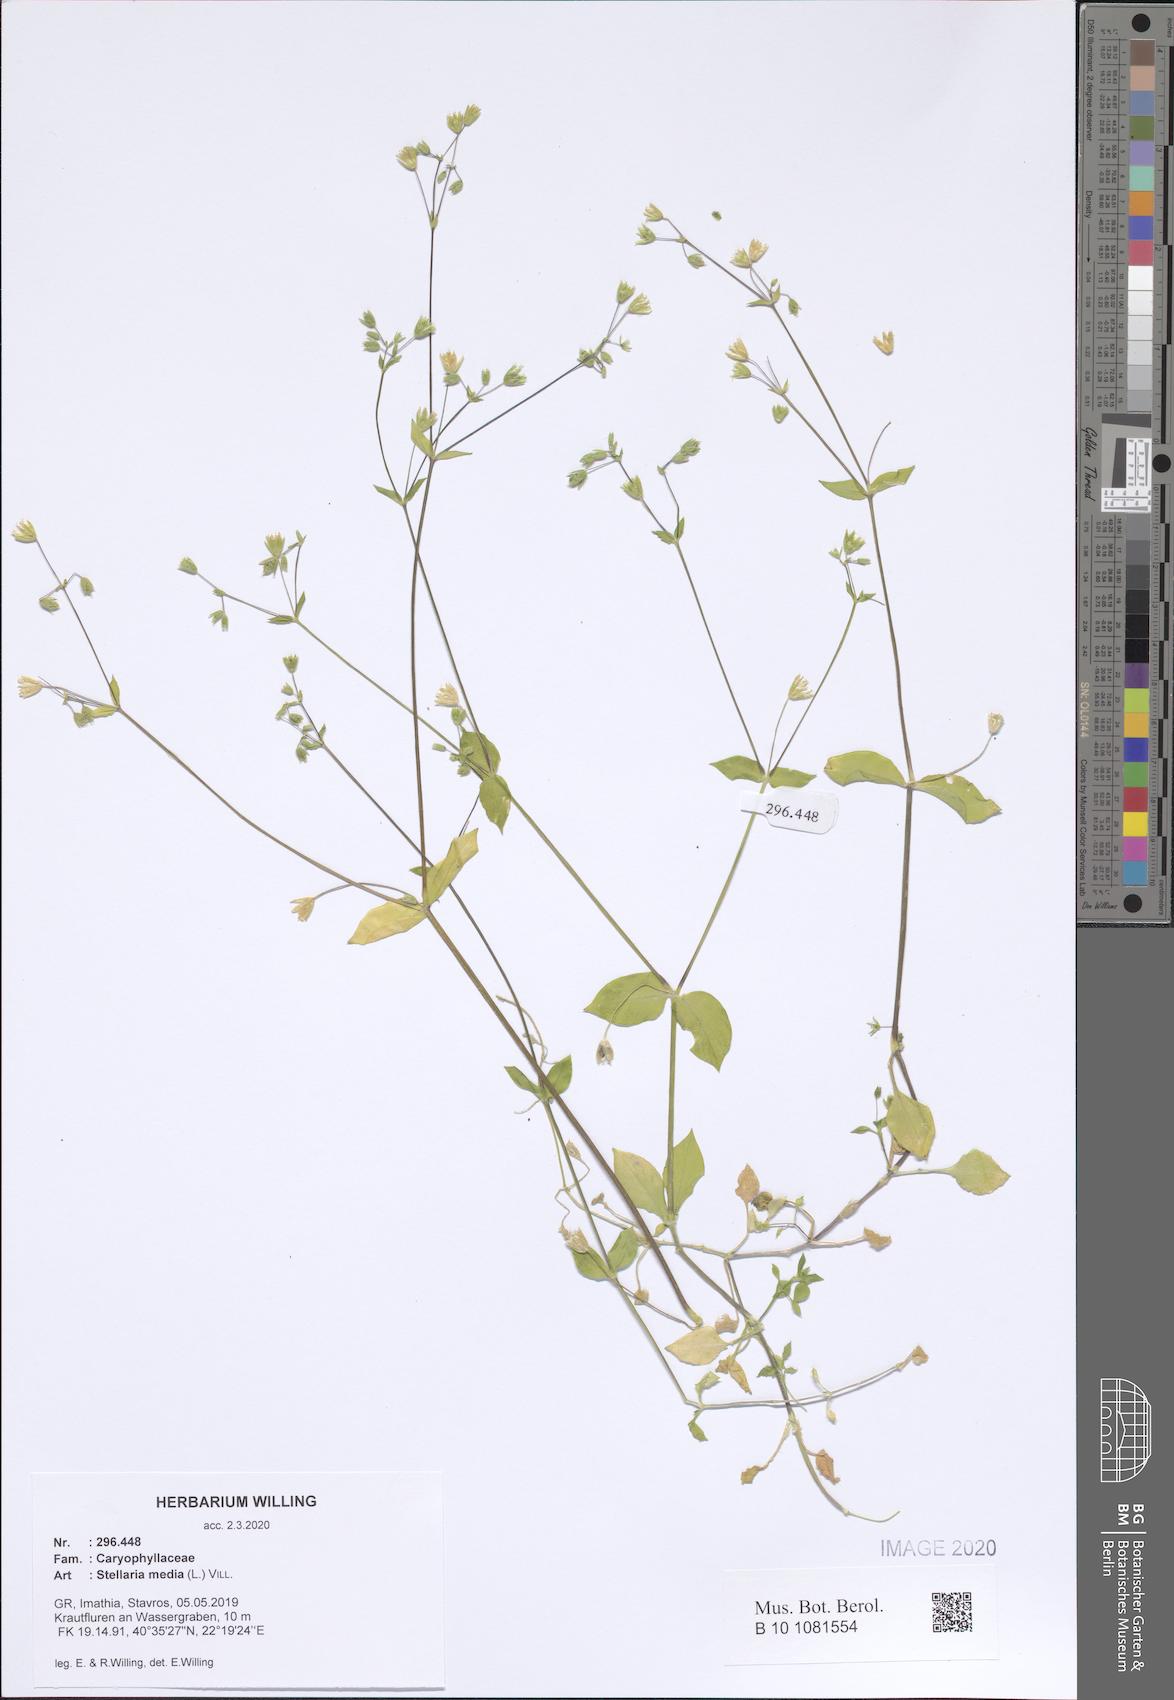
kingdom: Plantae
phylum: Tracheophyta
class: Magnoliopsida
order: Caryophyllales
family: Caryophyllaceae
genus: Stellaria
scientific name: Stellaria media
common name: Common chickweed
